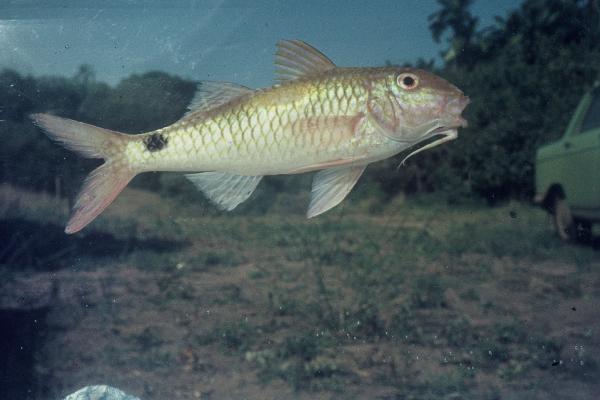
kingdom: Animalia
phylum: Chordata
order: Perciformes
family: Mullidae
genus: Parupeneus
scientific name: Parupeneus indicus
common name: Indian goatfish
